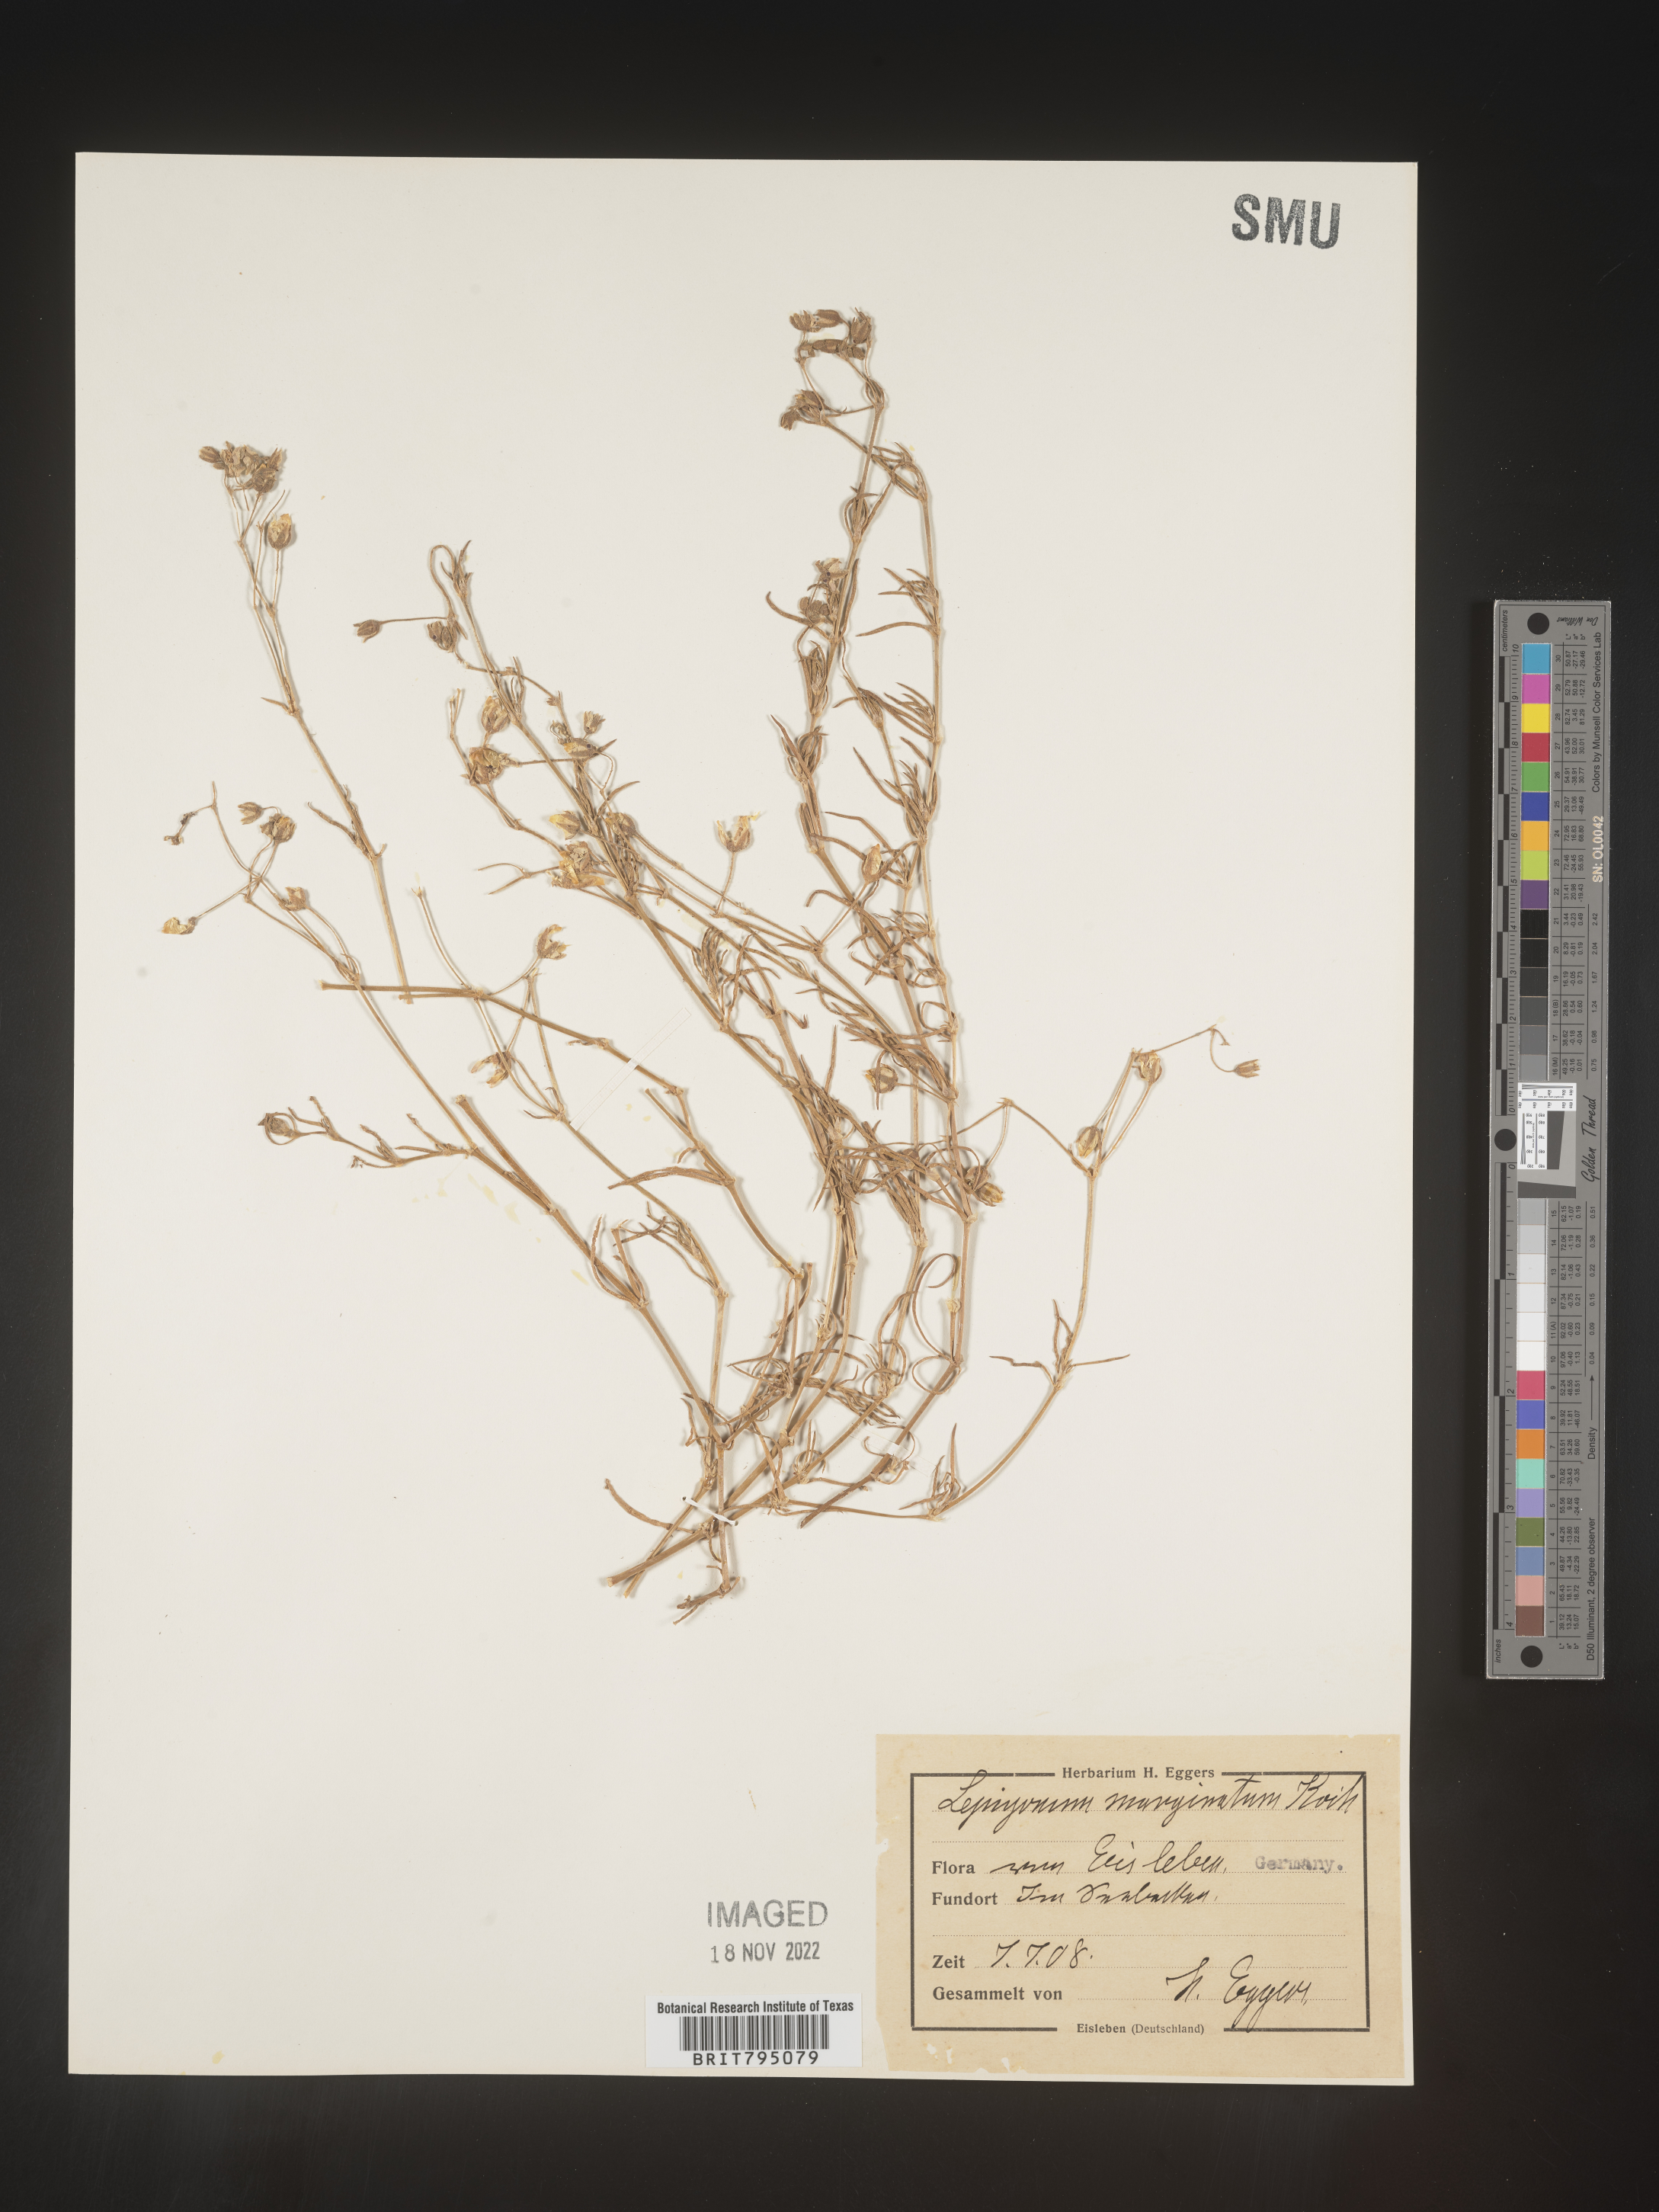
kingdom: Plantae
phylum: Tracheophyta
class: Magnoliopsida
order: Caryophyllales
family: Caryophyllaceae
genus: Spergularia
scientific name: Spergularia media
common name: Greater sea-spurrey
